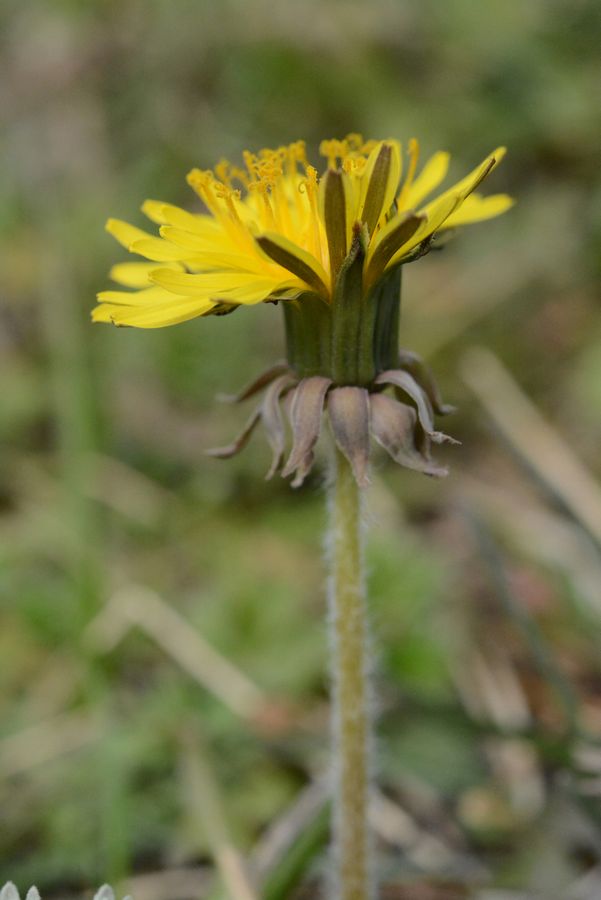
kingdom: Plantae
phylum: Tracheophyta
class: Magnoliopsida
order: Asterales
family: Asteraceae
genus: Taraxacum
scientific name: Taraxacum erythrospermum
